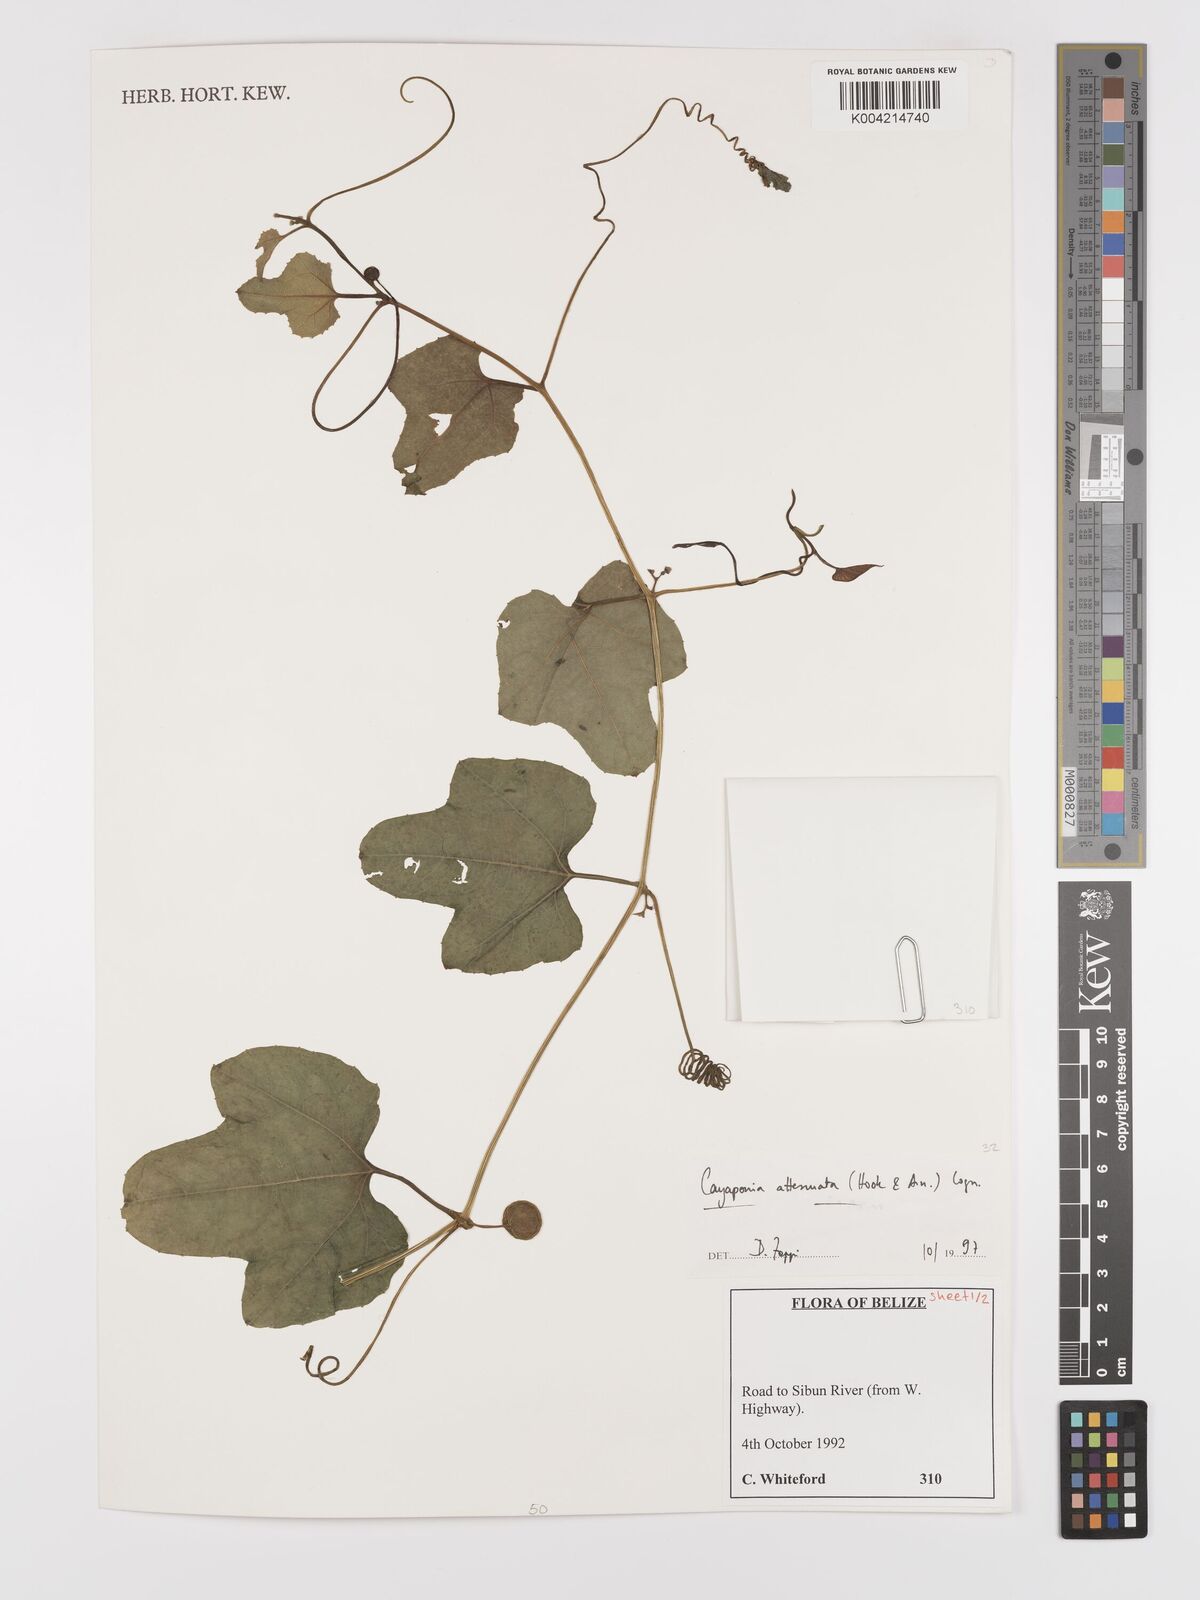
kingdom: Plantae
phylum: Tracheophyta
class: Magnoliopsida
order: Cucurbitales
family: Cucurbitaceae
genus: Cayaponia
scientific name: Cayaponia attenuata
